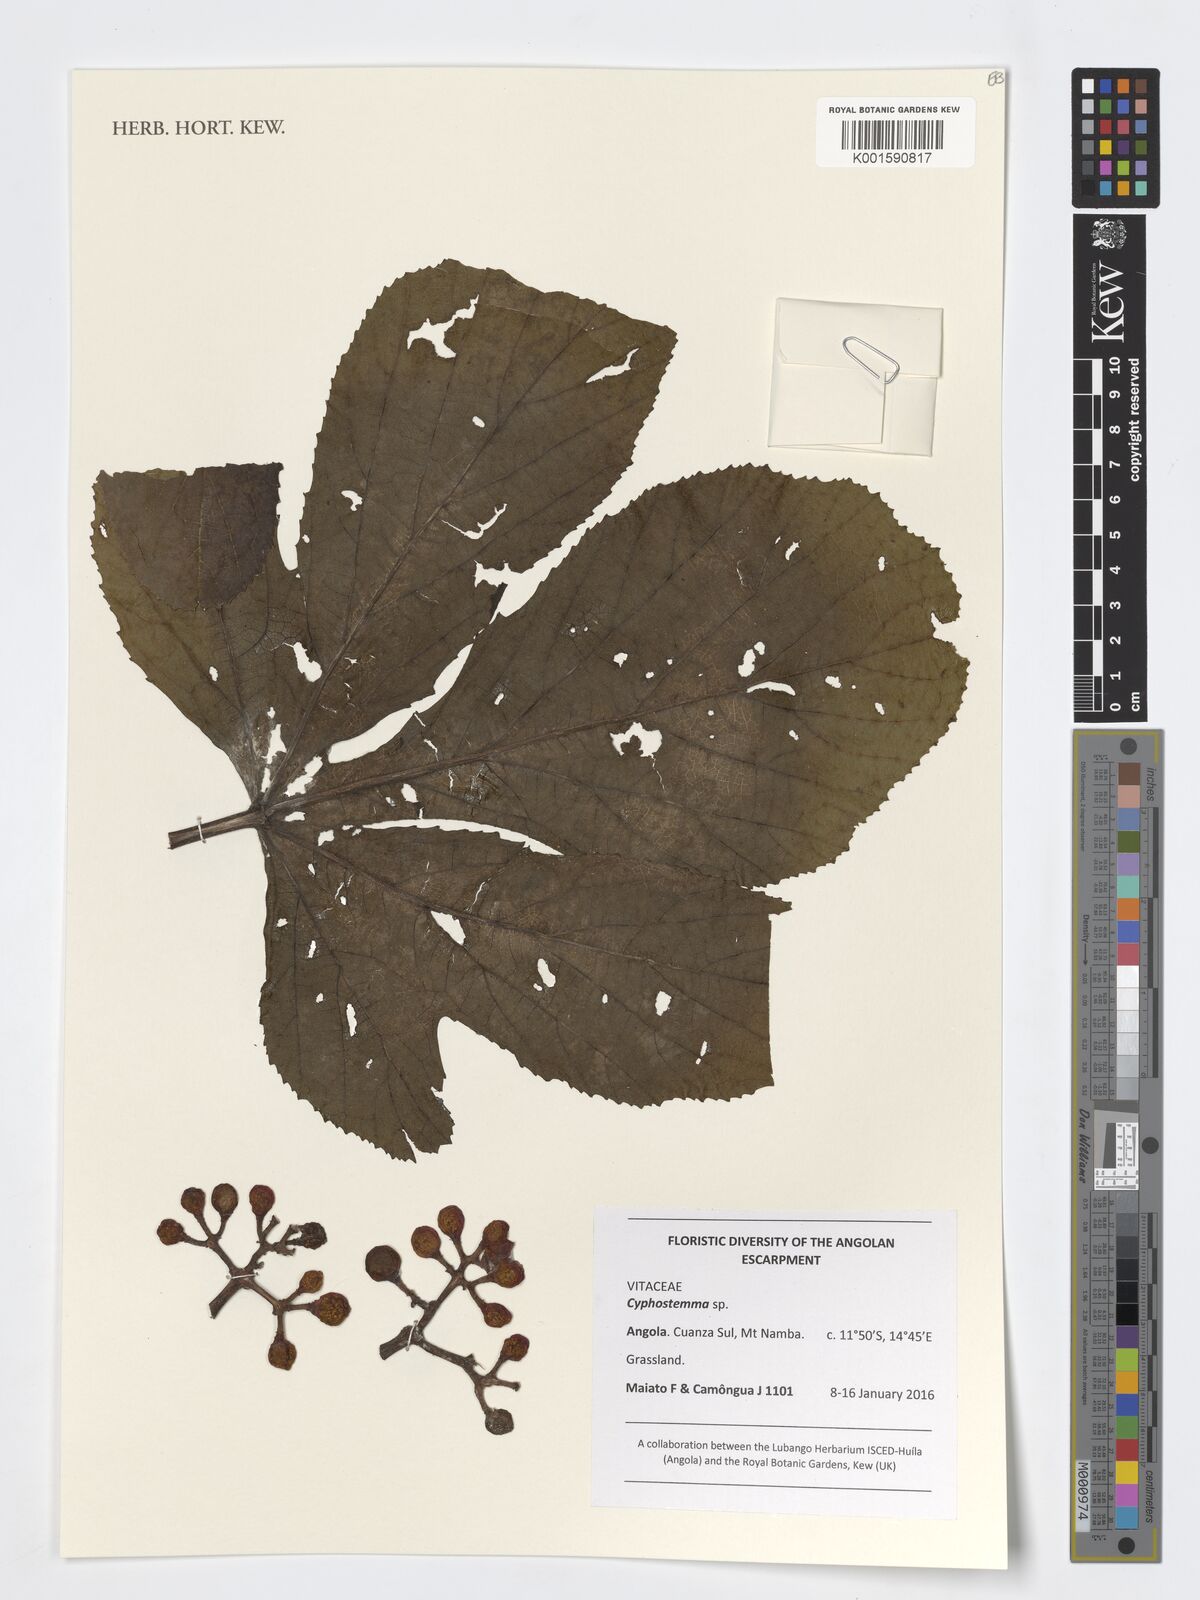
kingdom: Plantae
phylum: Tracheophyta
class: Magnoliopsida
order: Vitales
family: Vitaceae
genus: Cyphostemma
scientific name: Cyphostemma
